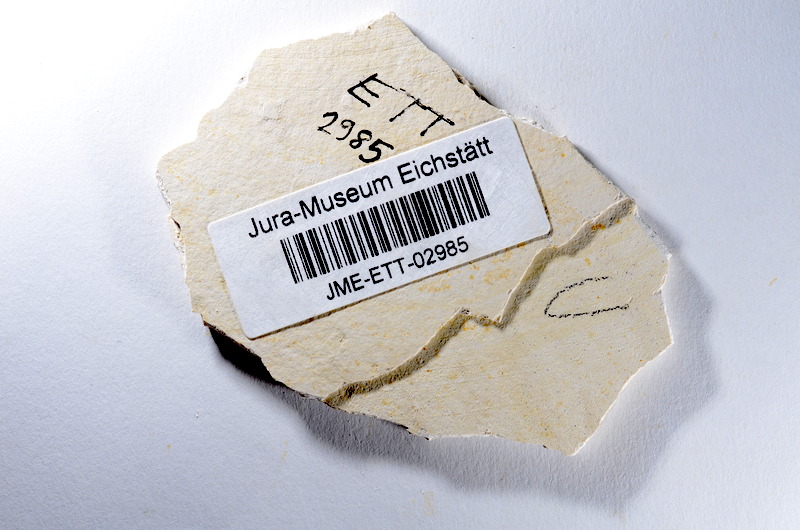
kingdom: Animalia
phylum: Chordata
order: Salmoniformes
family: Orthogonikleithridae
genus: Orthogonikleithrus
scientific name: Orthogonikleithrus hoelli
